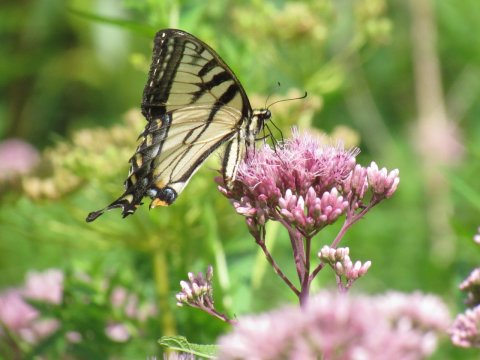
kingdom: Animalia
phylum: Arthropoda
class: Insecta
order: Lepidoptera
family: Papilionidae
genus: Pterourus
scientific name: Pterourus
